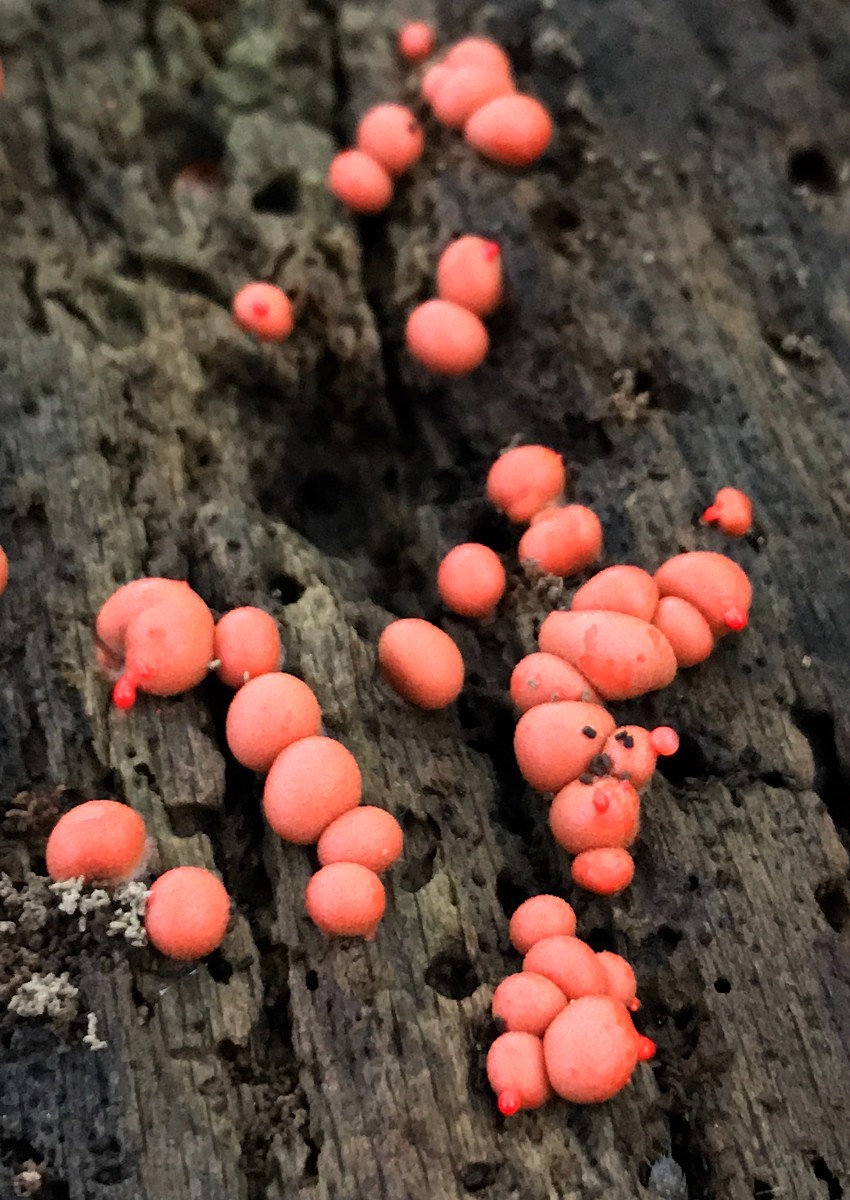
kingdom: Protozoa
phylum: Mycetozoa
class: Myxomycetes
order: Cribrariales
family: Tubiferaceae
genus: Lycogala
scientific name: Lycogala epidendrum
